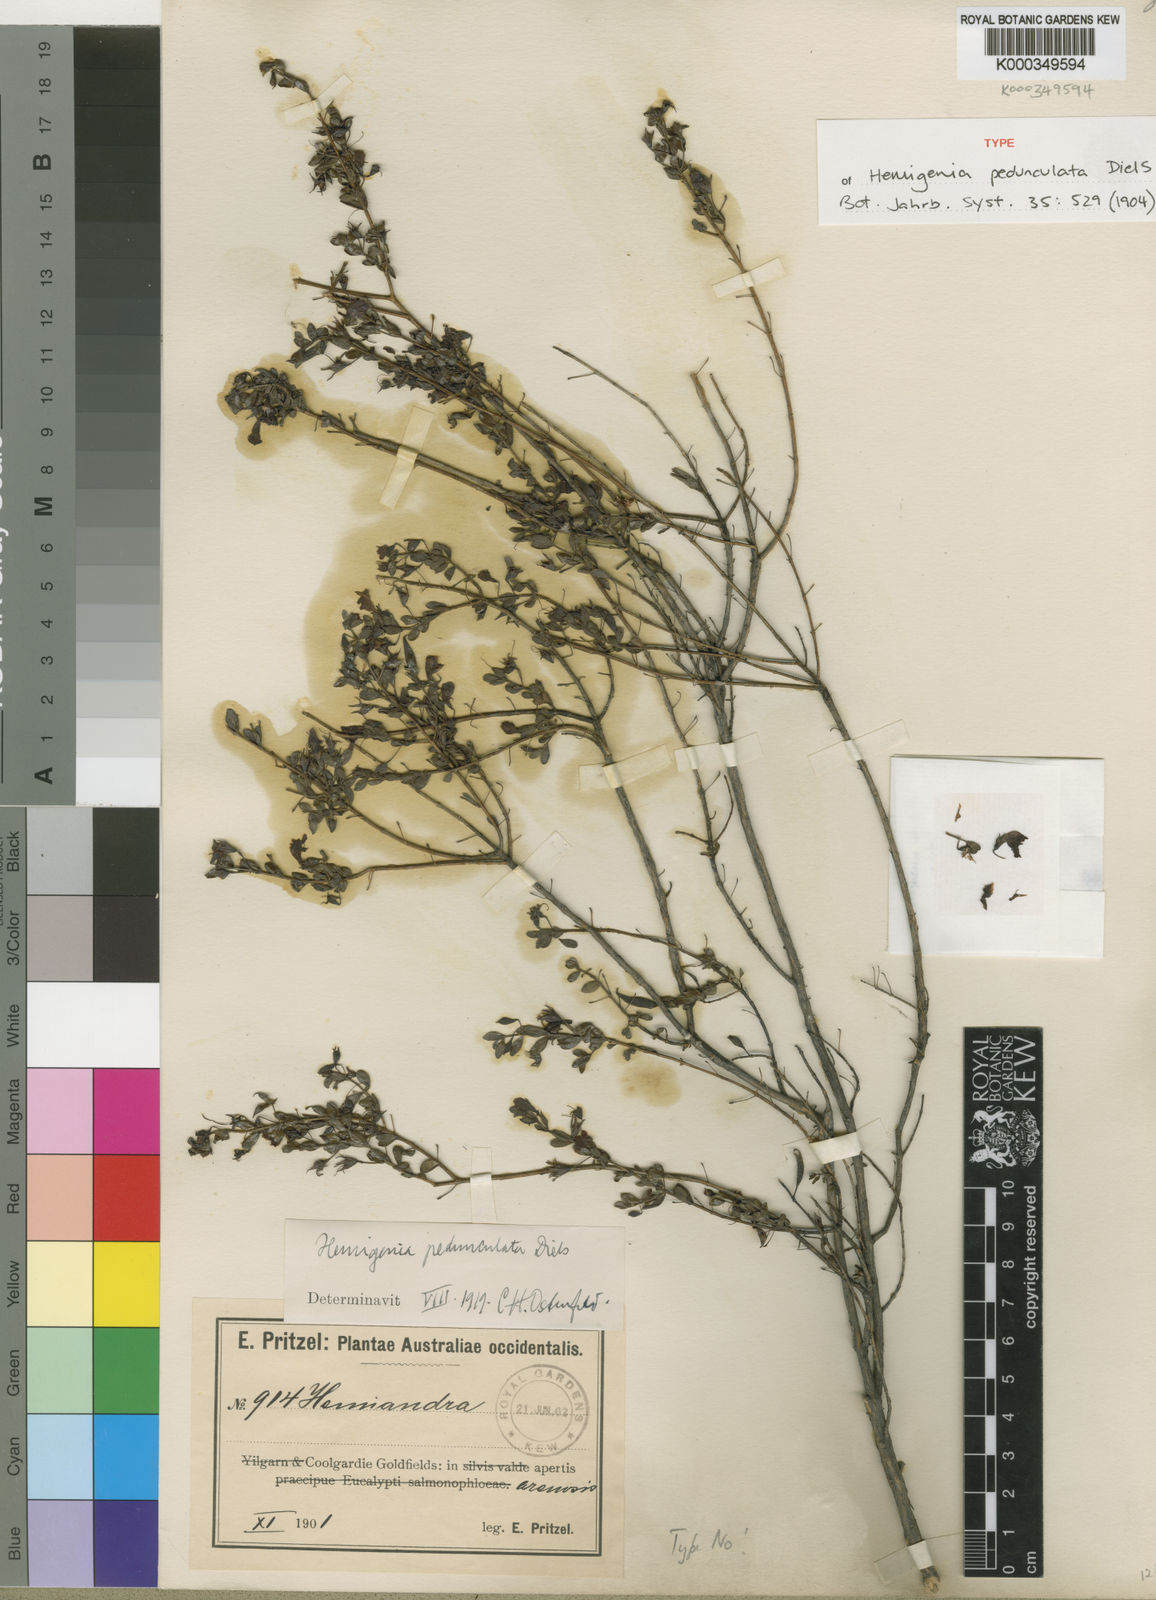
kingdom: Plantae
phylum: Tracheophyta
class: Magnoliopsida
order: Lamiales
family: Lamiaceae
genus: Hemigenia
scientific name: Hemigenia pedunculata
